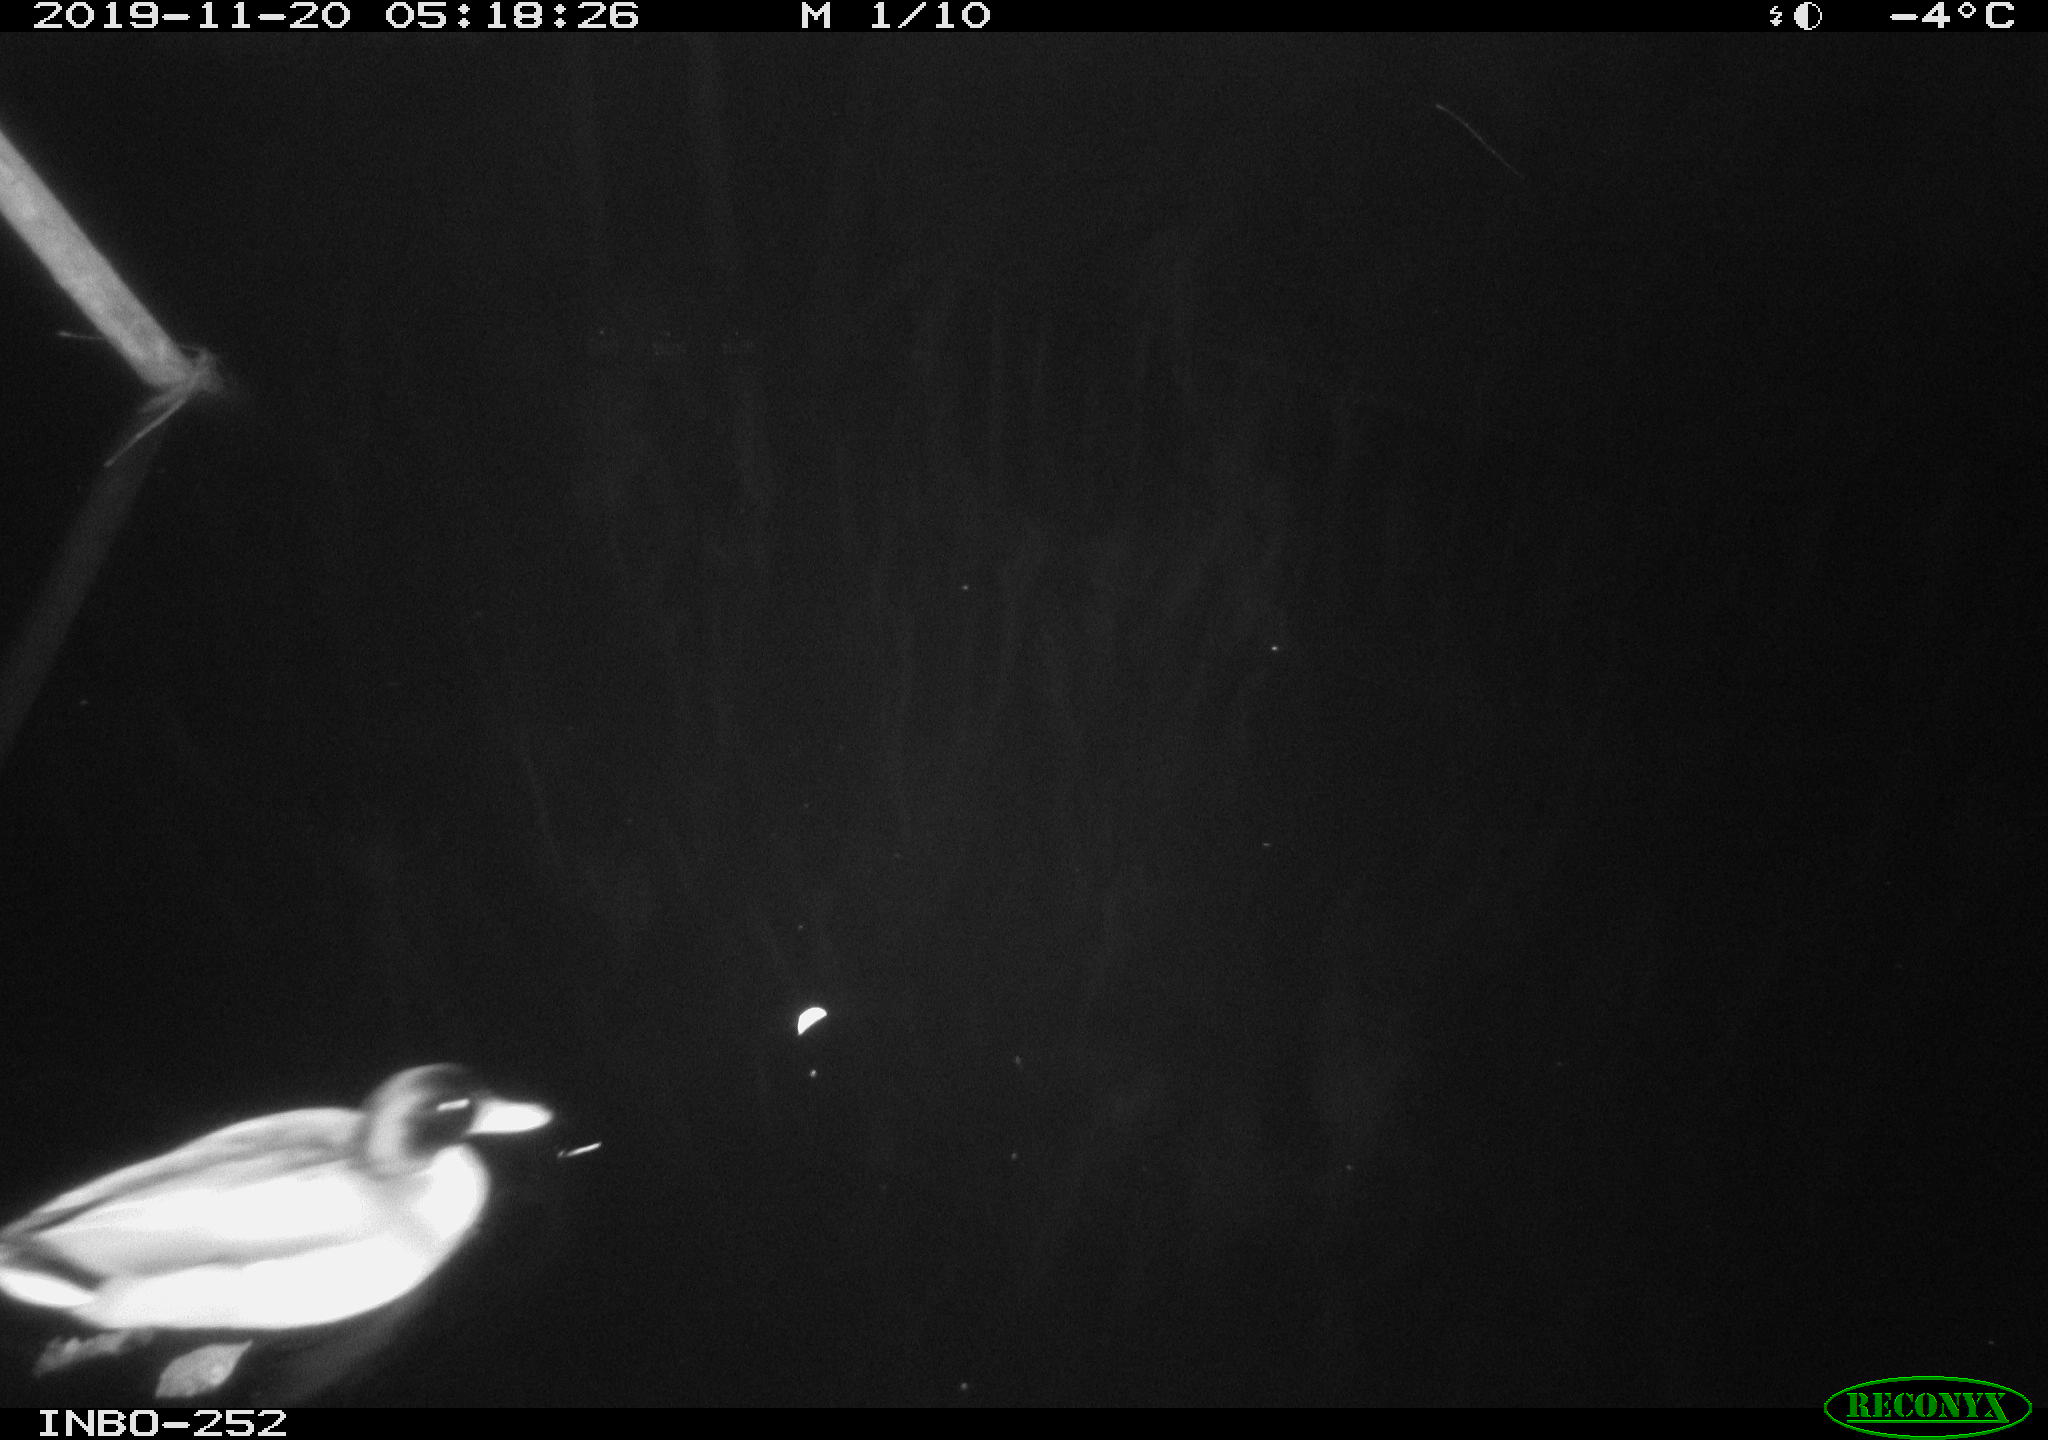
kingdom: Animalia
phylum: Chordata
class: Aves
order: Anseriformes
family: Anatidae
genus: Anas
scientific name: Anas platyrhynchos
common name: Mallard
